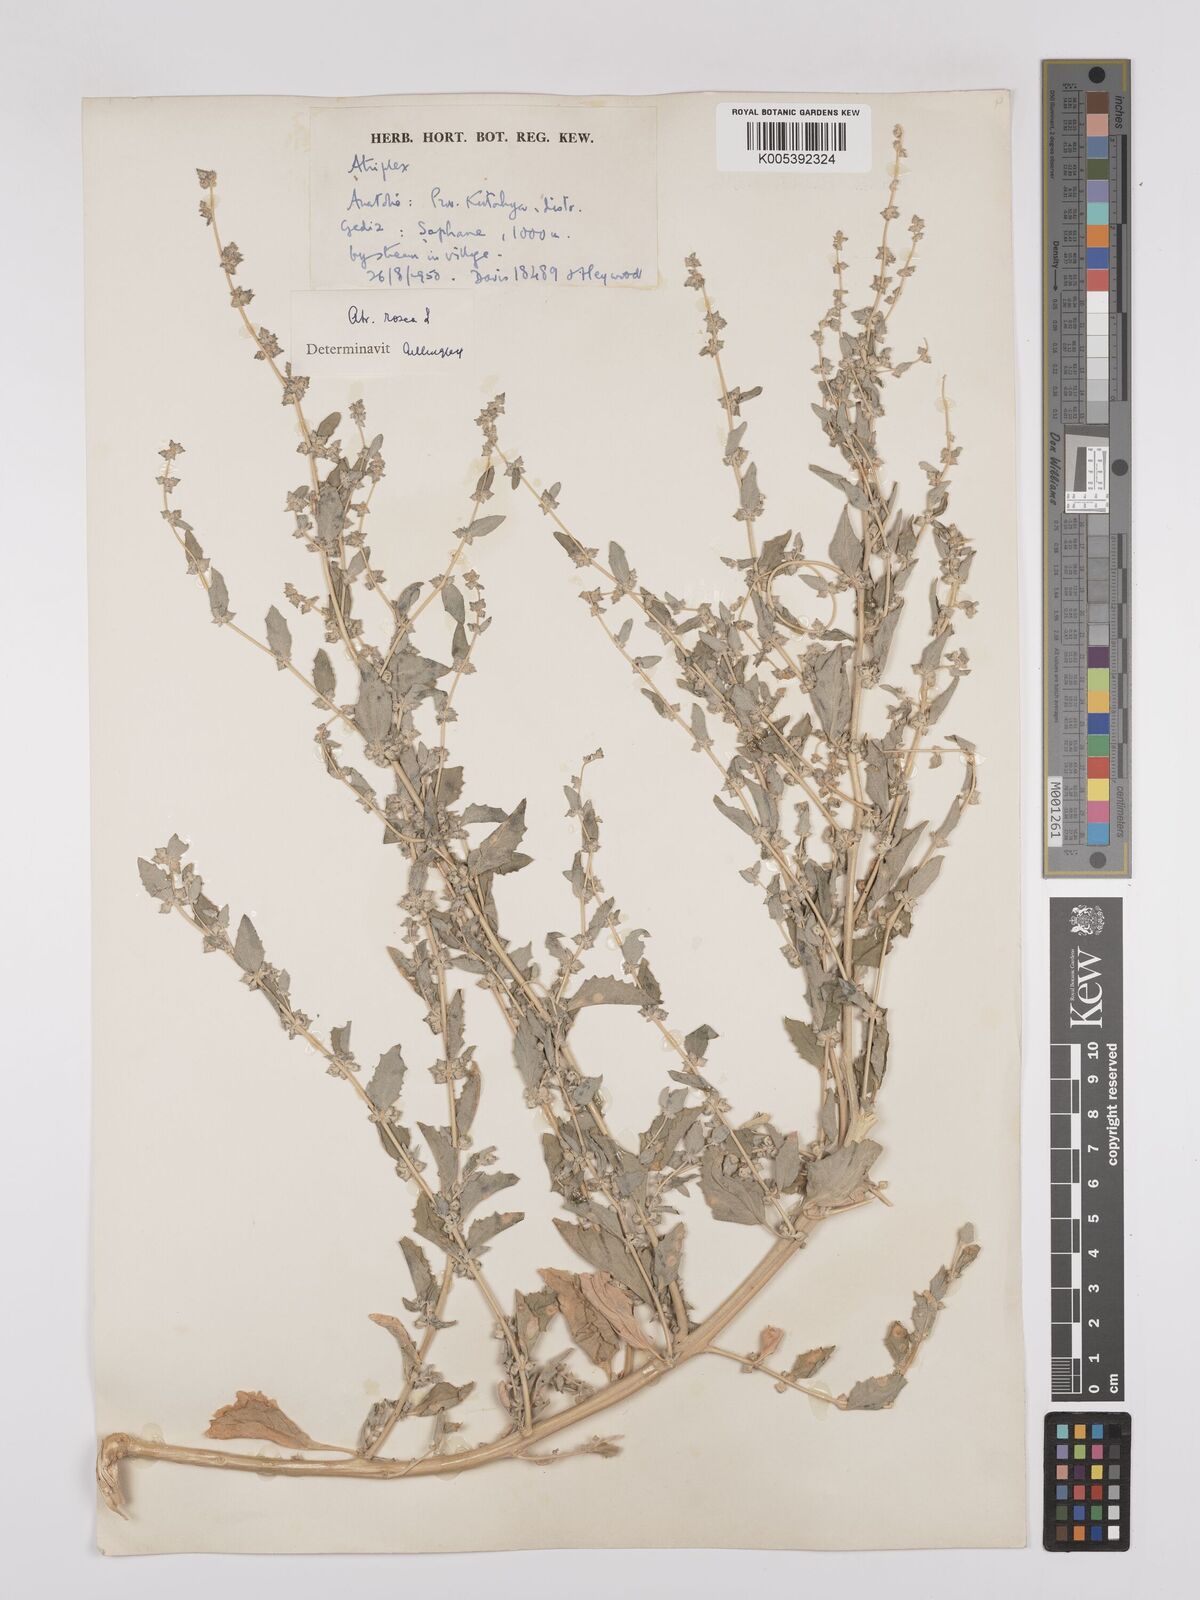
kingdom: Plantae
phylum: Tracheophyta
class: Magnoliopsida
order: Caryophyllales
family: Amaranthaceae
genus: Atriplex
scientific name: Atriplex
